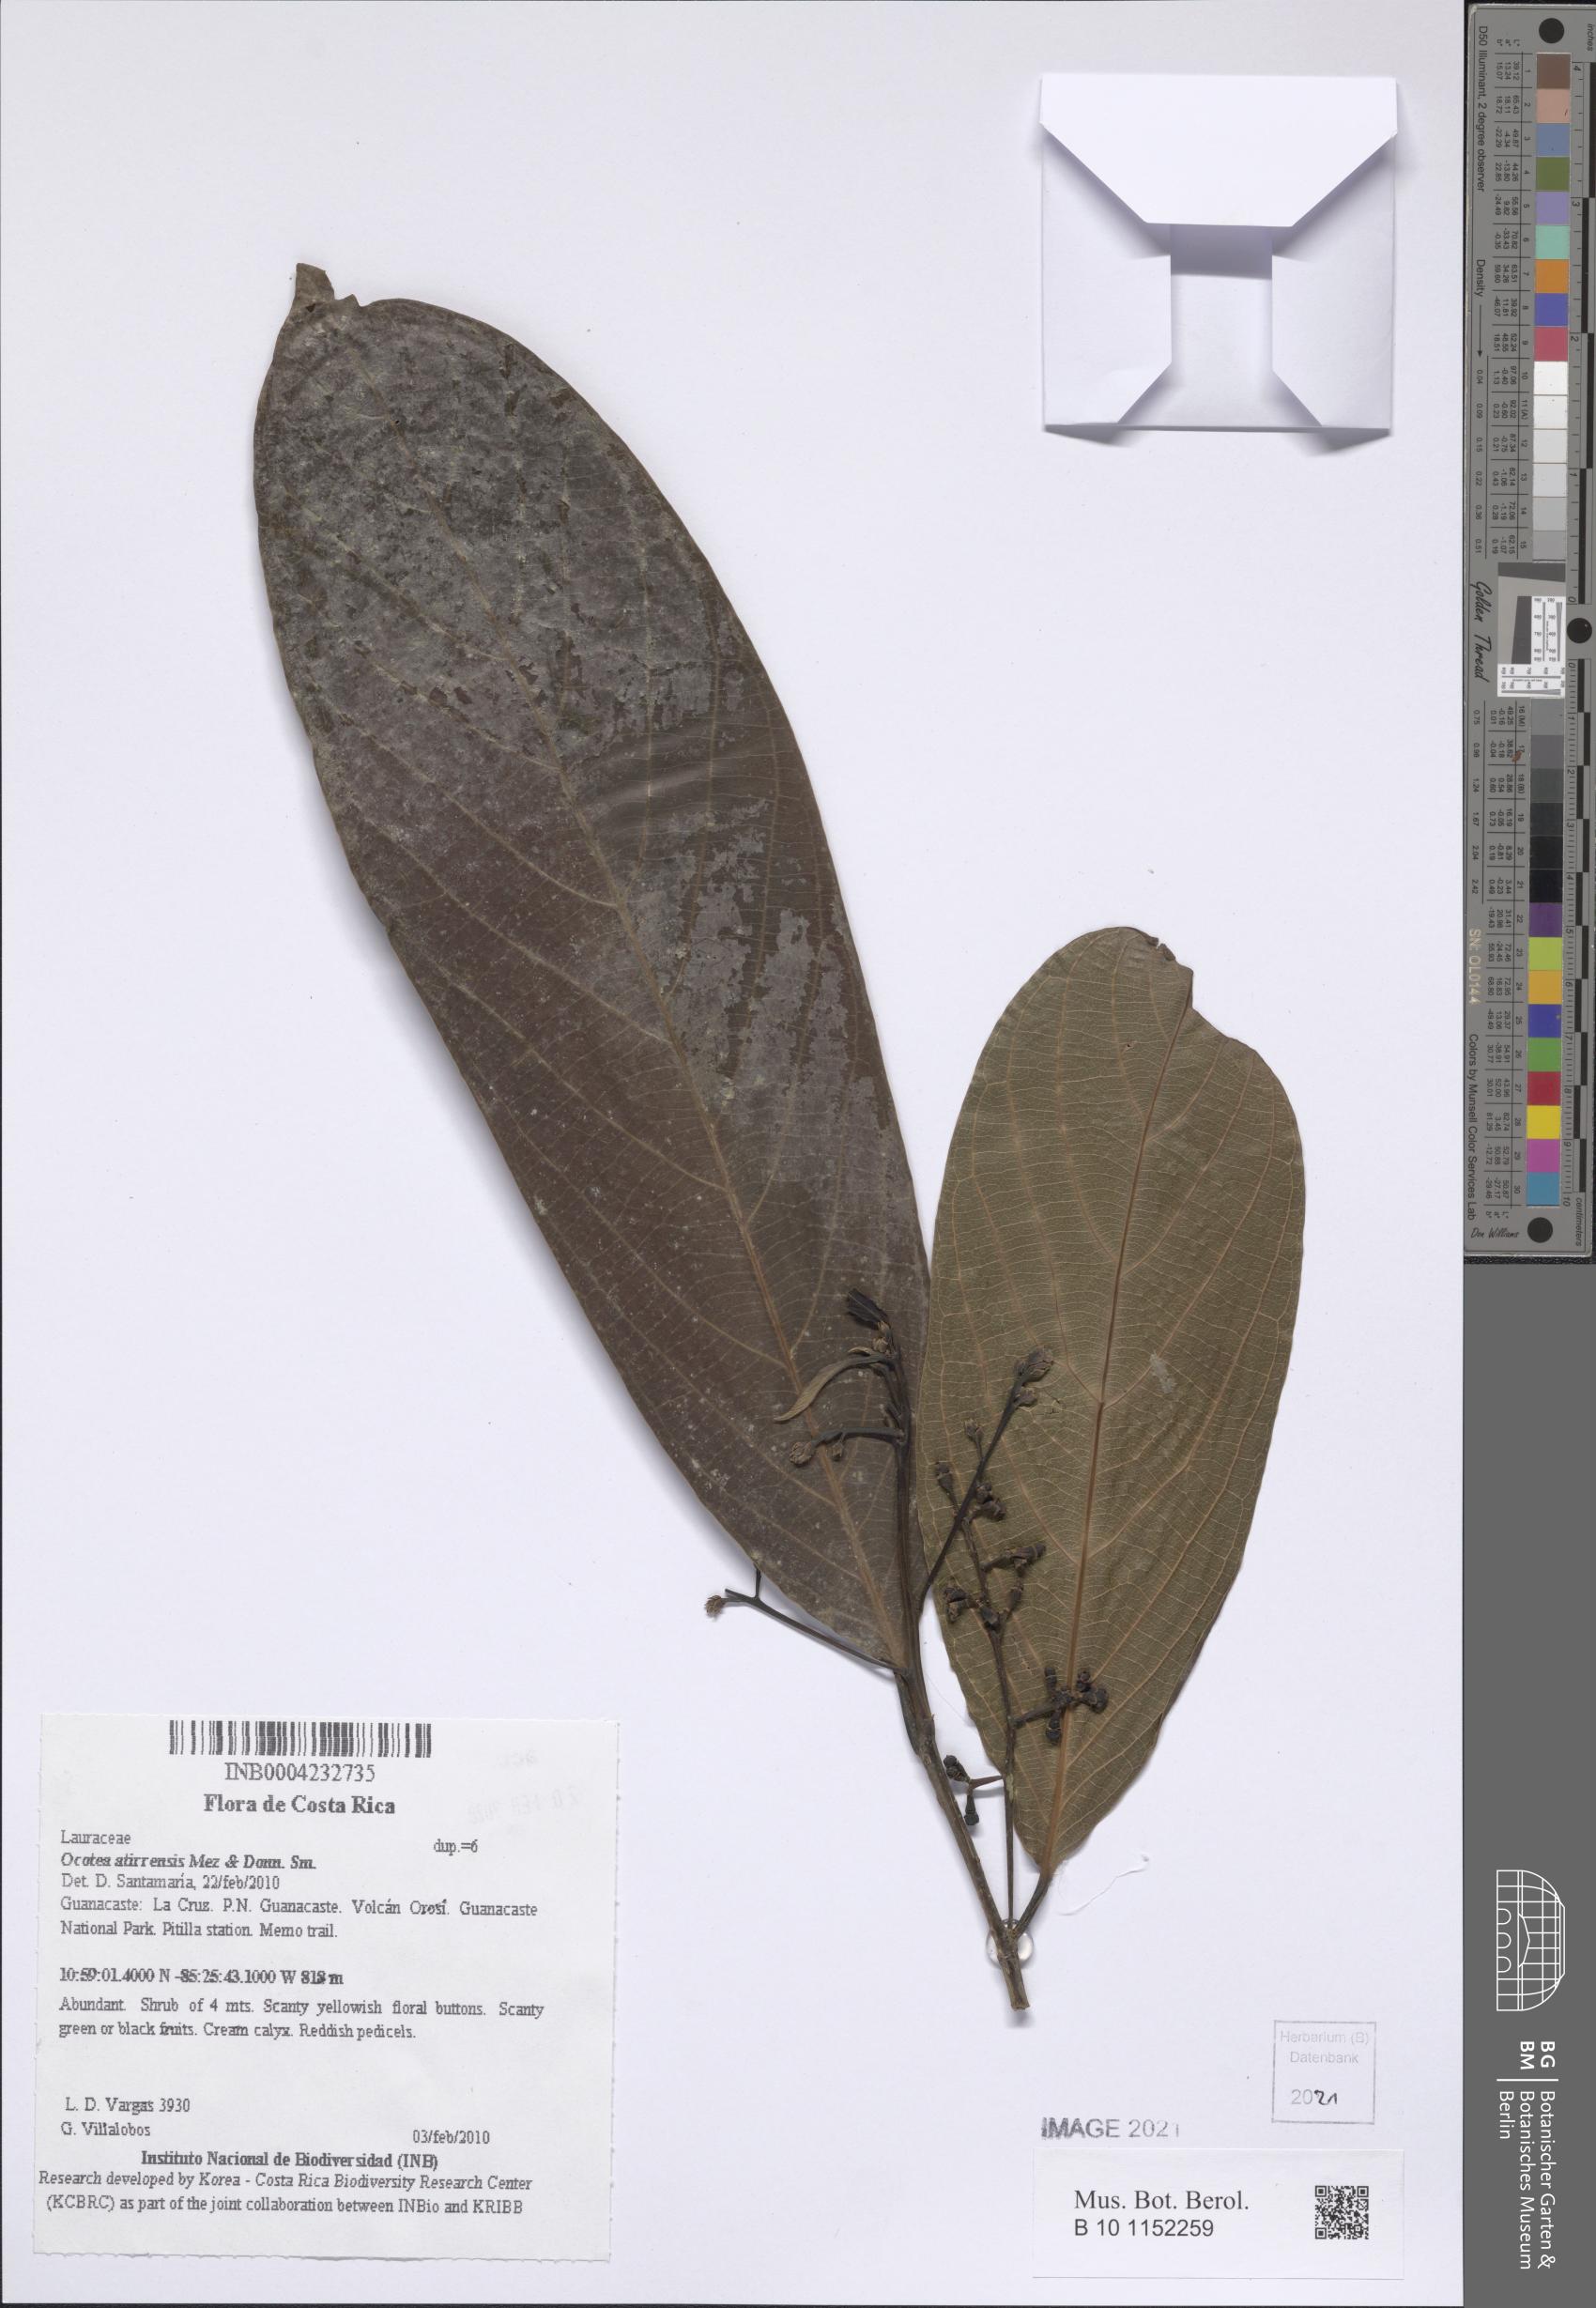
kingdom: Plantae
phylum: Tracheophyta
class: Magnoliopsida
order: Laurales
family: Lauraceae
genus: Ocotea
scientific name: Ocotea atirrensis
